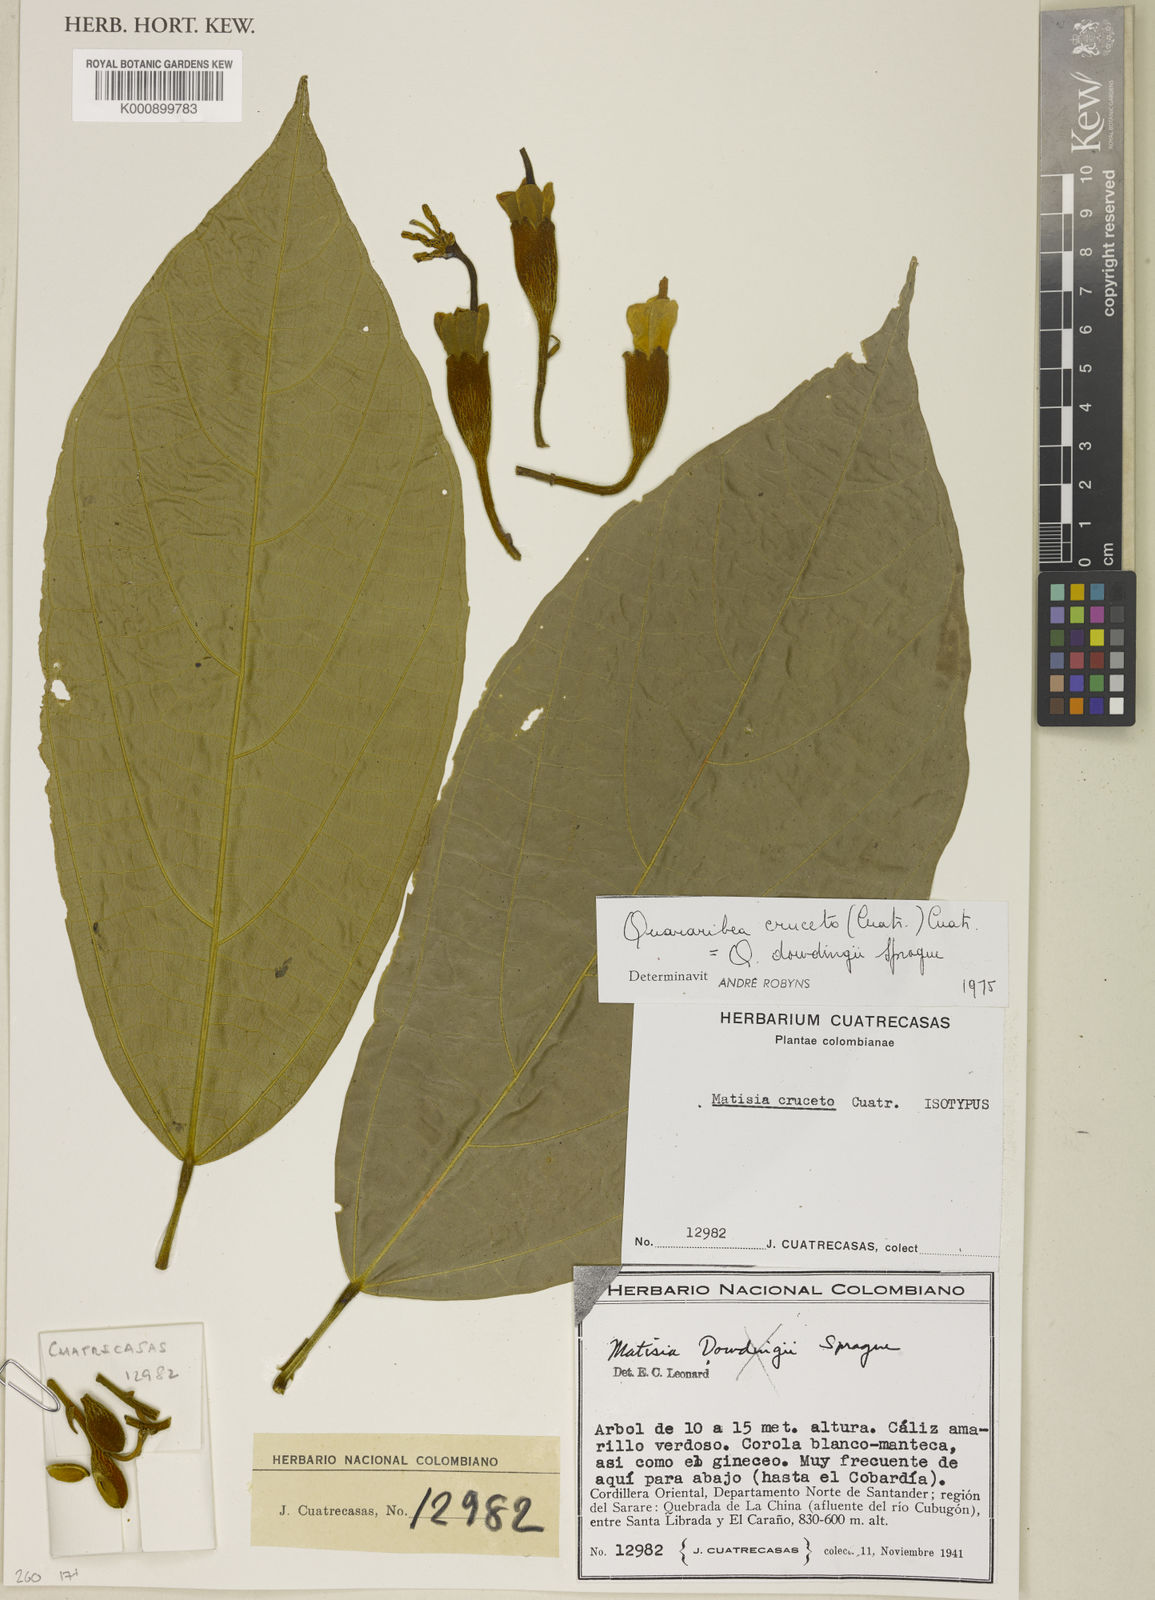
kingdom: Plantae
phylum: Tracheophyta
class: Magnoliopsida
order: Malvales
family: Malvaceae
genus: Matisia
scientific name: Matisia cruceto
